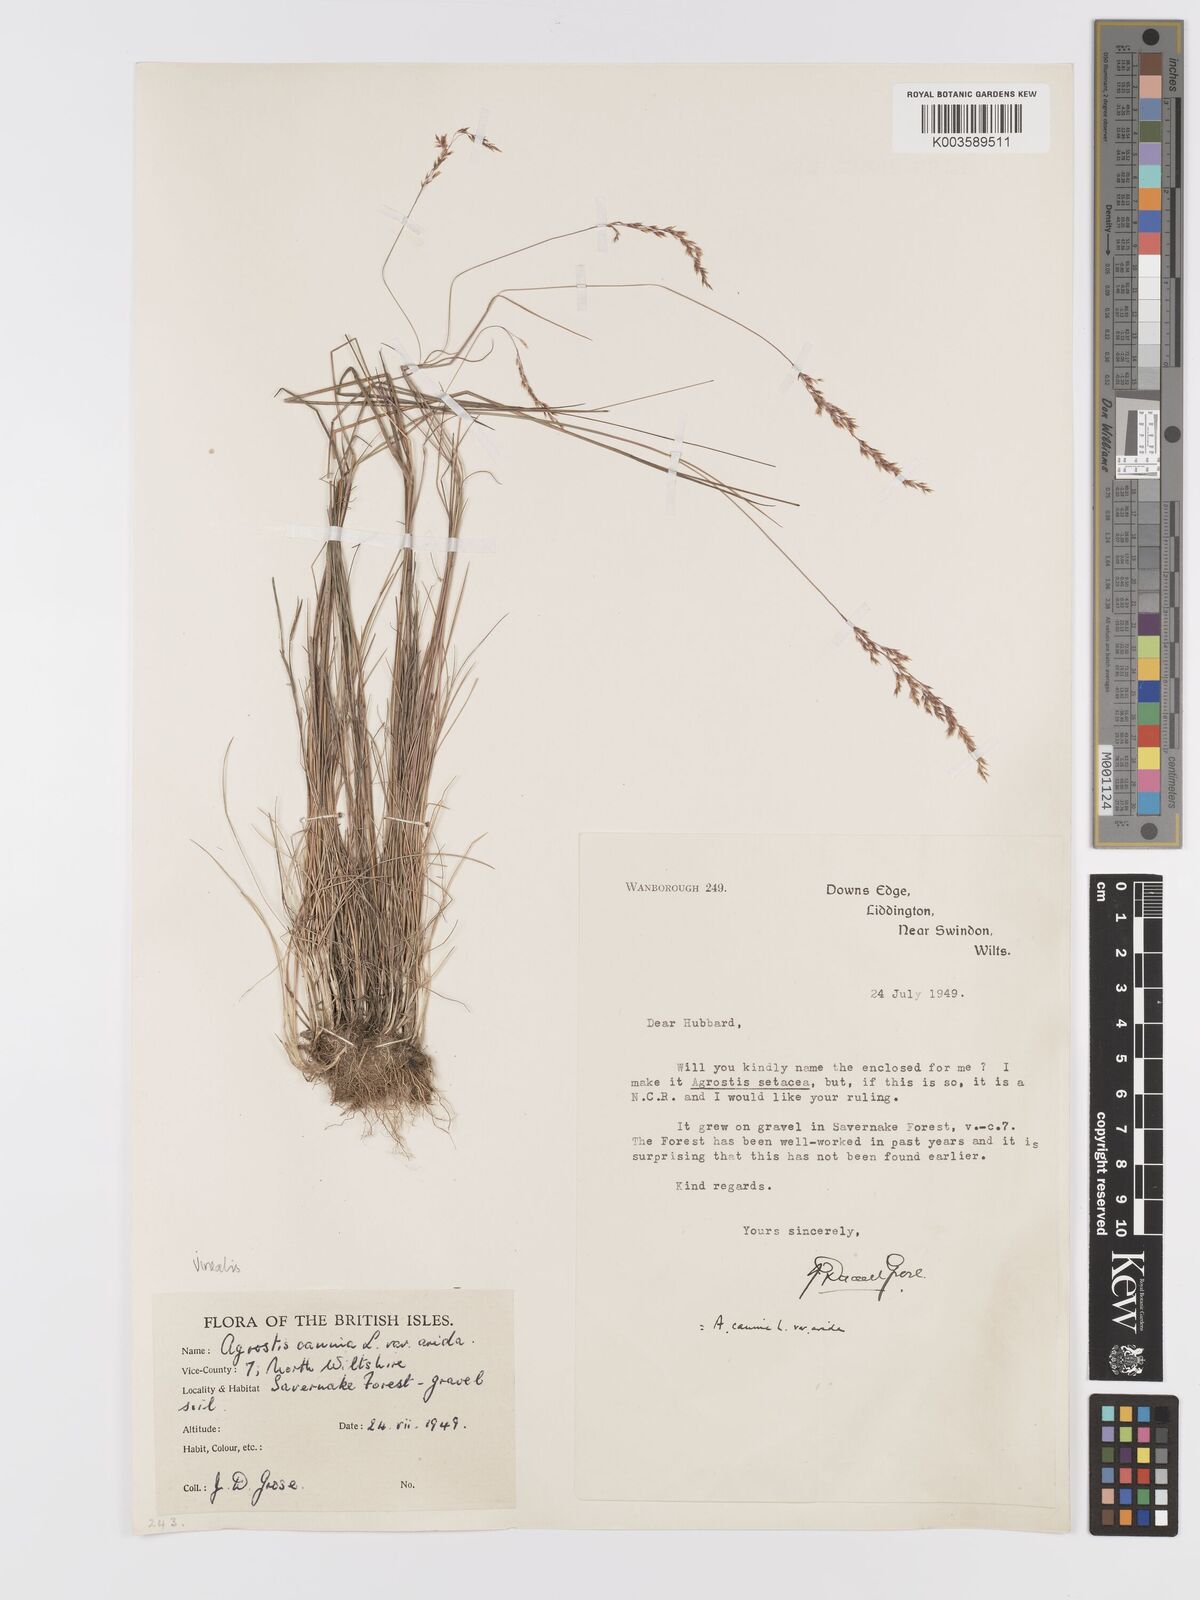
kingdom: Plantae
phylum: Tracheophyta
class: Liliopsida
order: Poales
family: Poaceae
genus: Agrostis
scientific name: Agrostis
